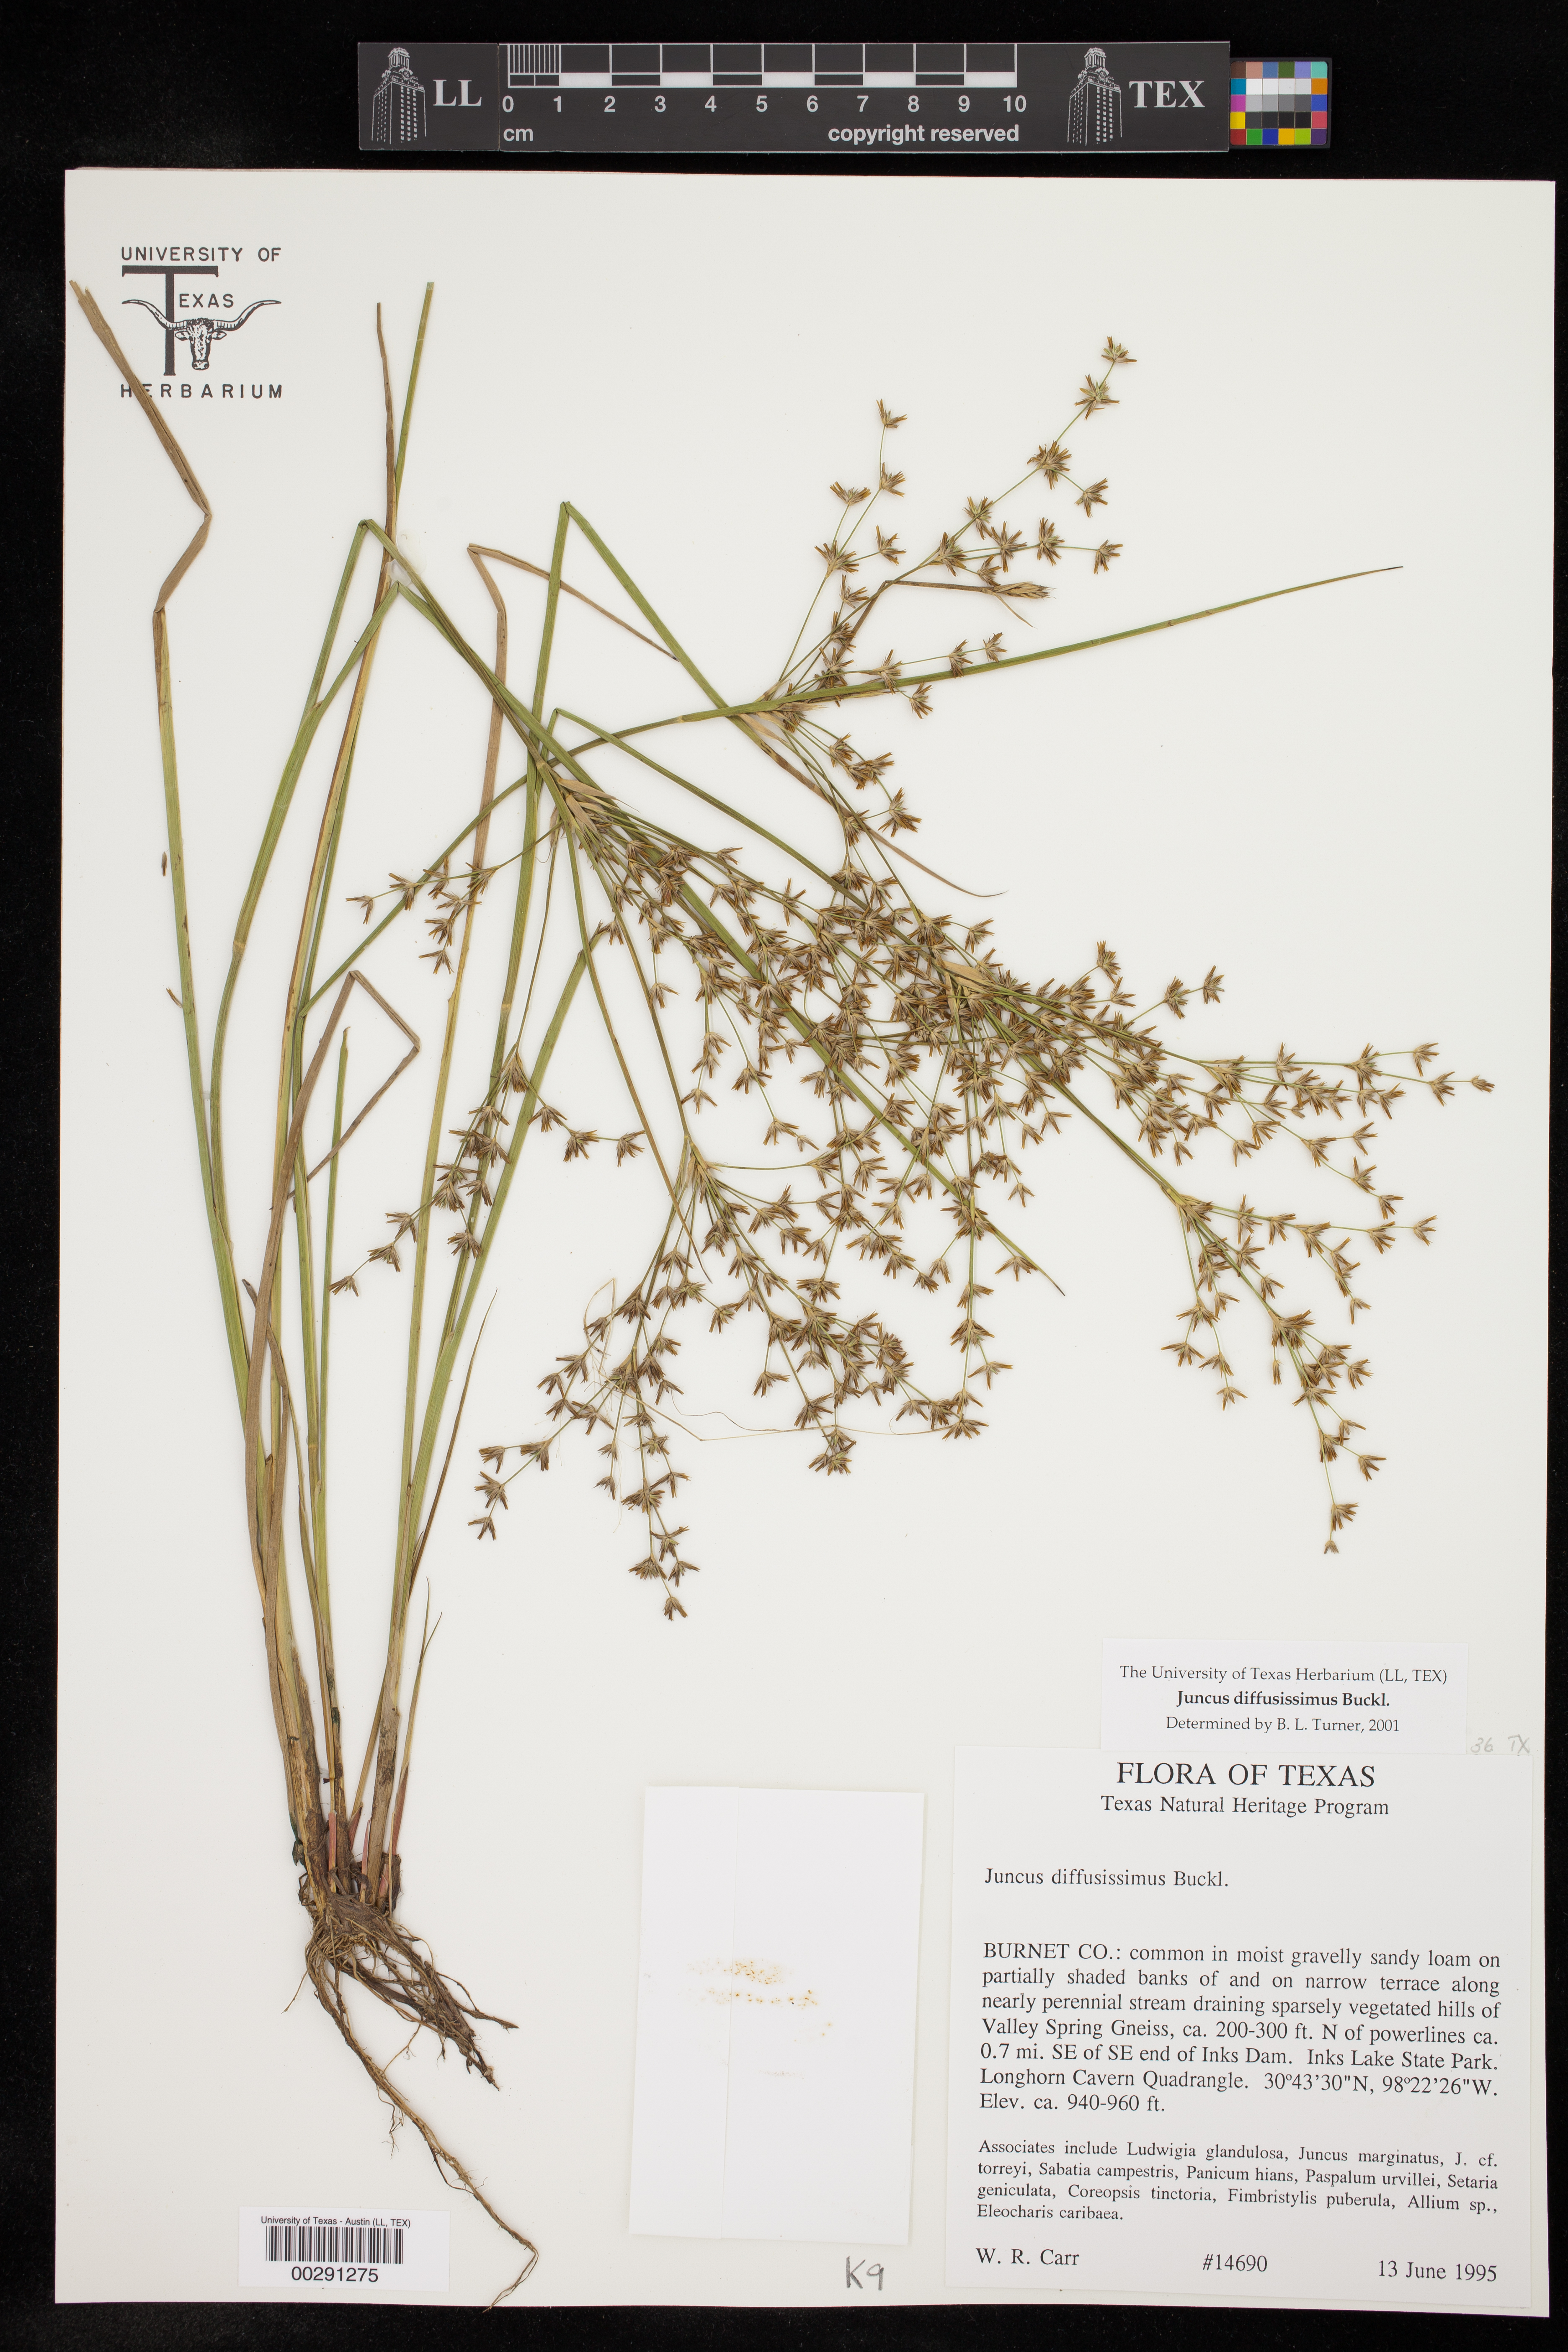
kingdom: Plantae
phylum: Tracheophyta
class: Liliopsida
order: Poales
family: Juncaceae
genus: Juncus
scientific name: Juncus diffusissimus
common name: Slimpod rush
